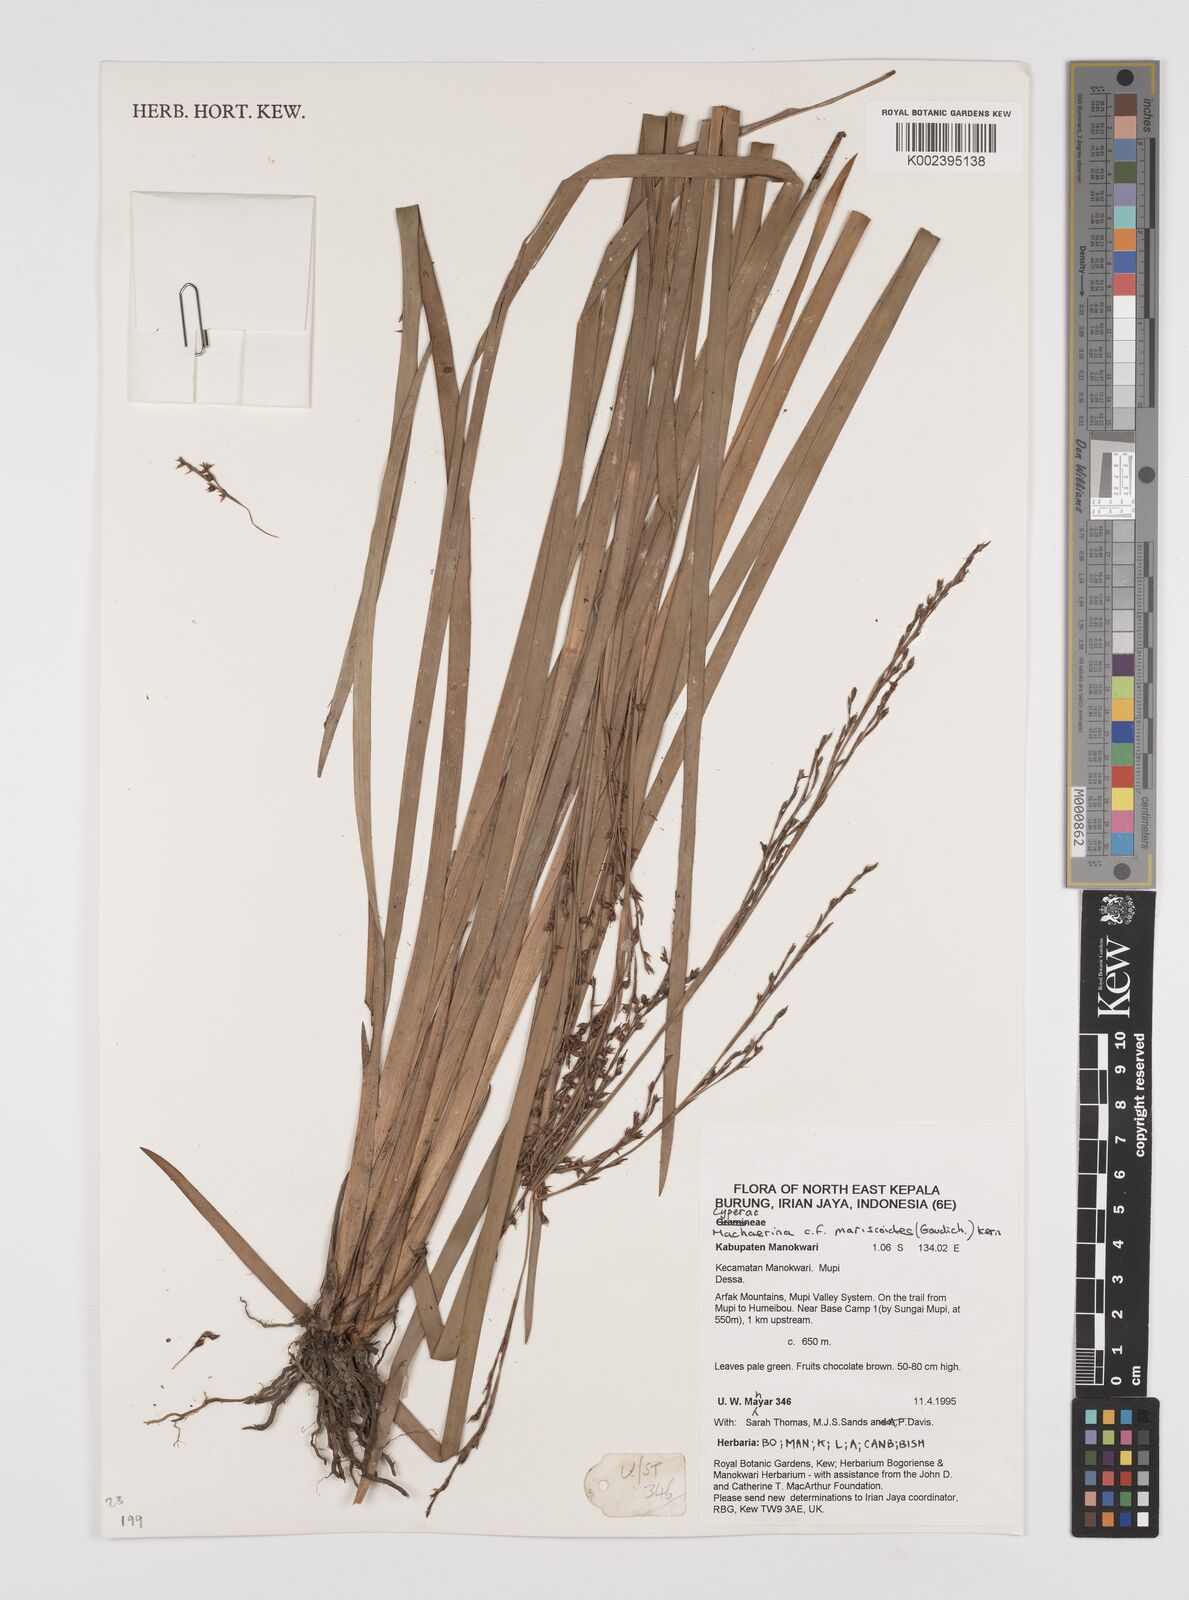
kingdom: Plantae
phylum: Tracheophyta
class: Liliopsida
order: Poales
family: Cyperaceae
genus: Machaerina
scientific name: Machaerina mariscoides
